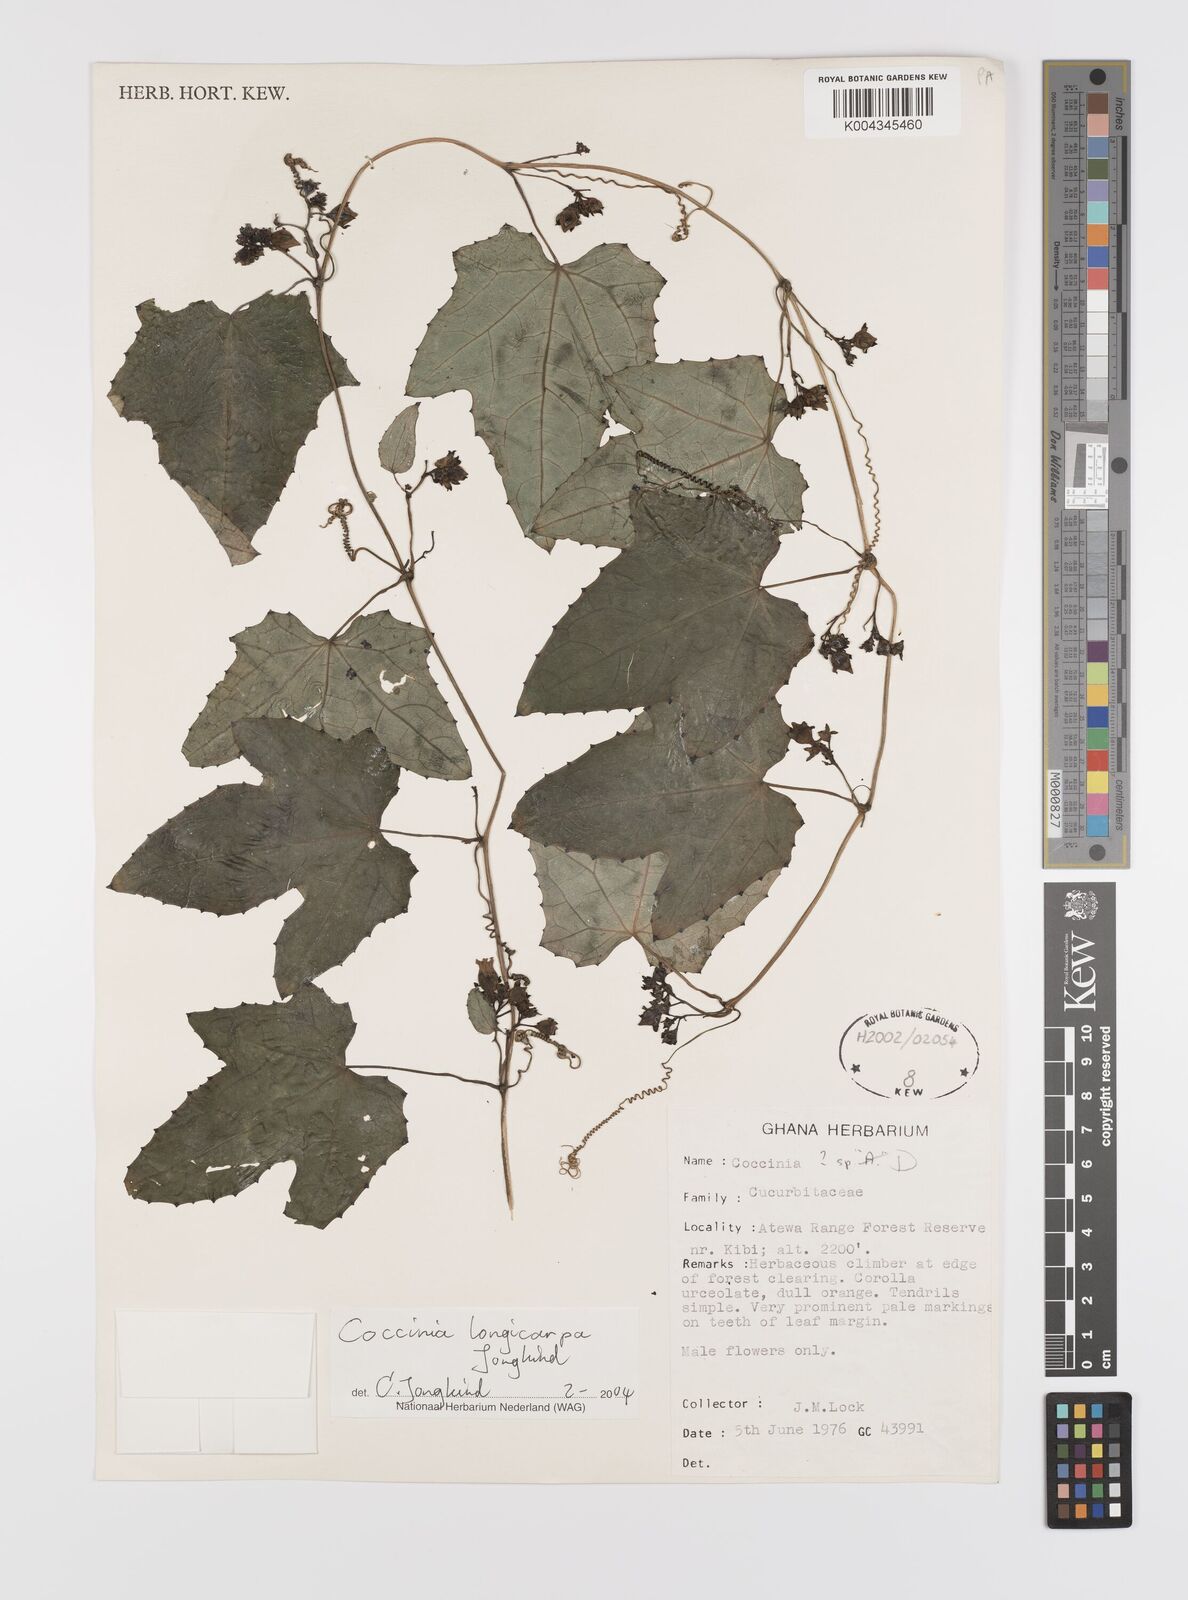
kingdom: Plantae
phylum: Tracheophyta
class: Magnoliopsida
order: Cucurbitales
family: Cucurbitaceae
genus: Coccinia
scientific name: Coccinia longicarpa
